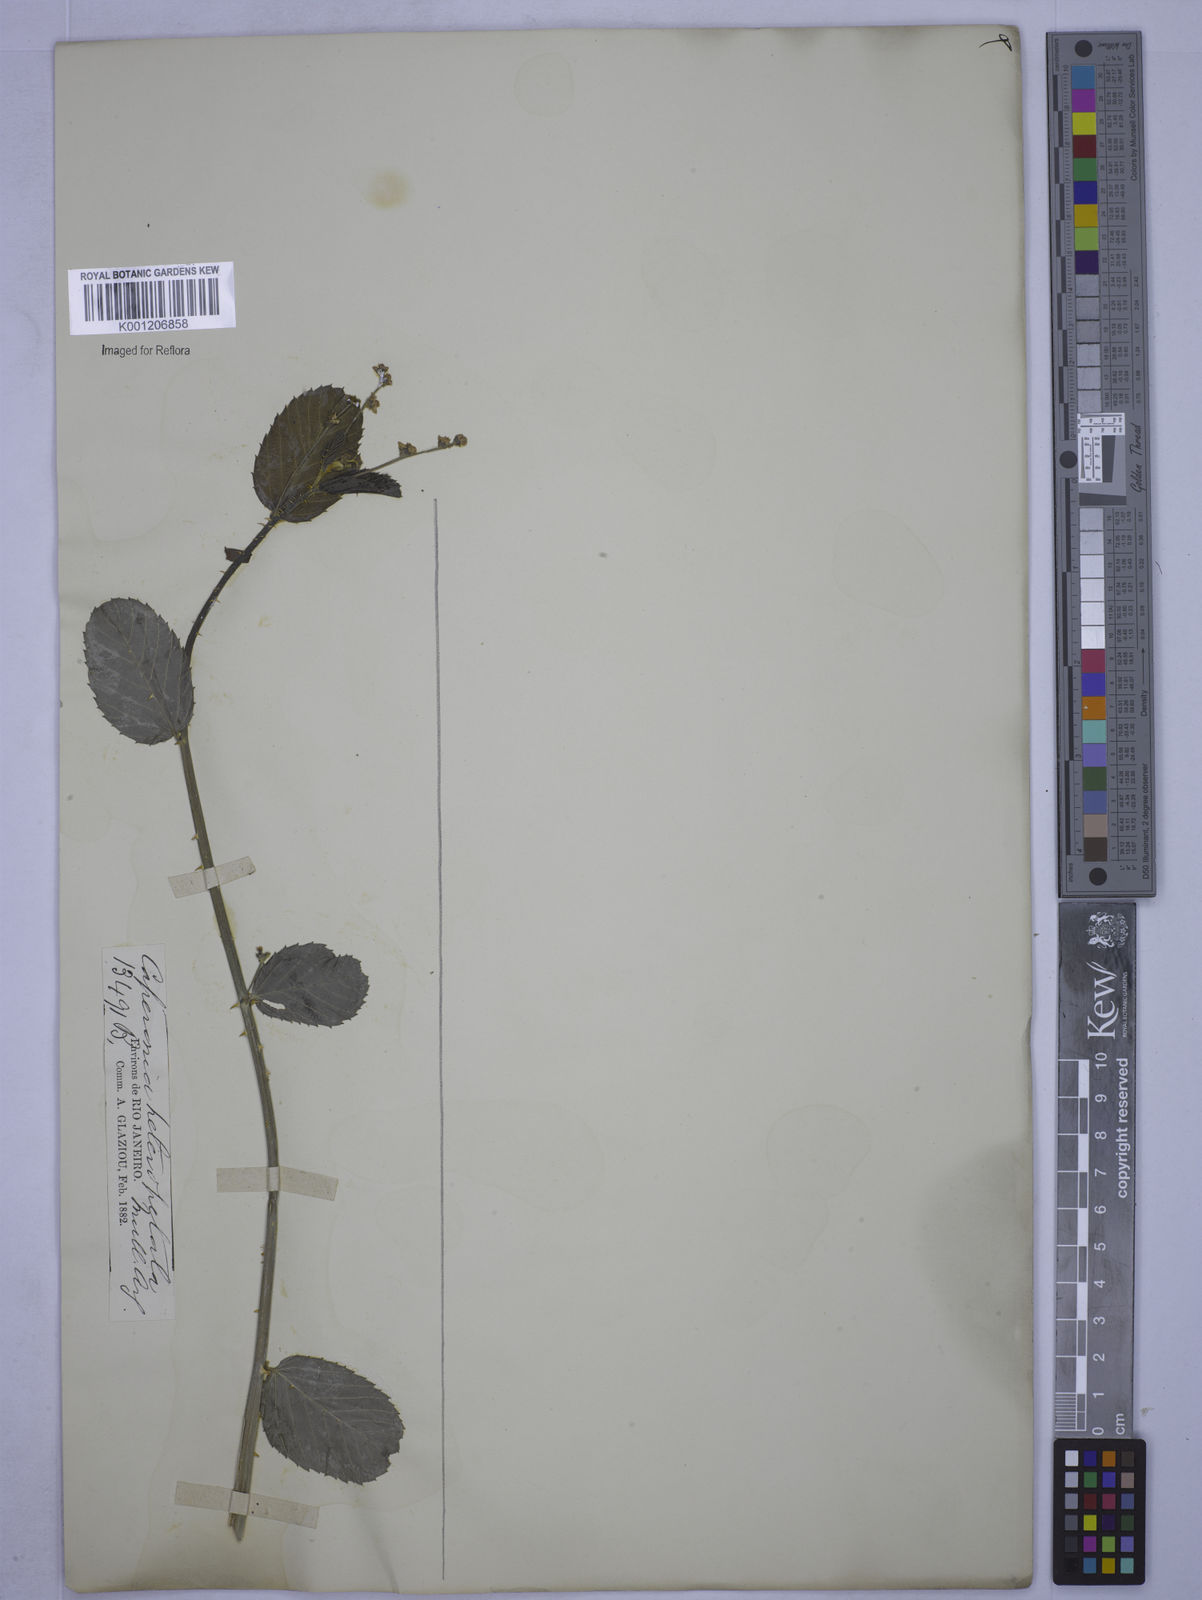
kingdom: Plantae
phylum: Tracheophyta
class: Magnoliopsida
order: Malpighiales
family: Euphorbiaceae
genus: Caperonia
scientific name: Caperonia heteropetala
